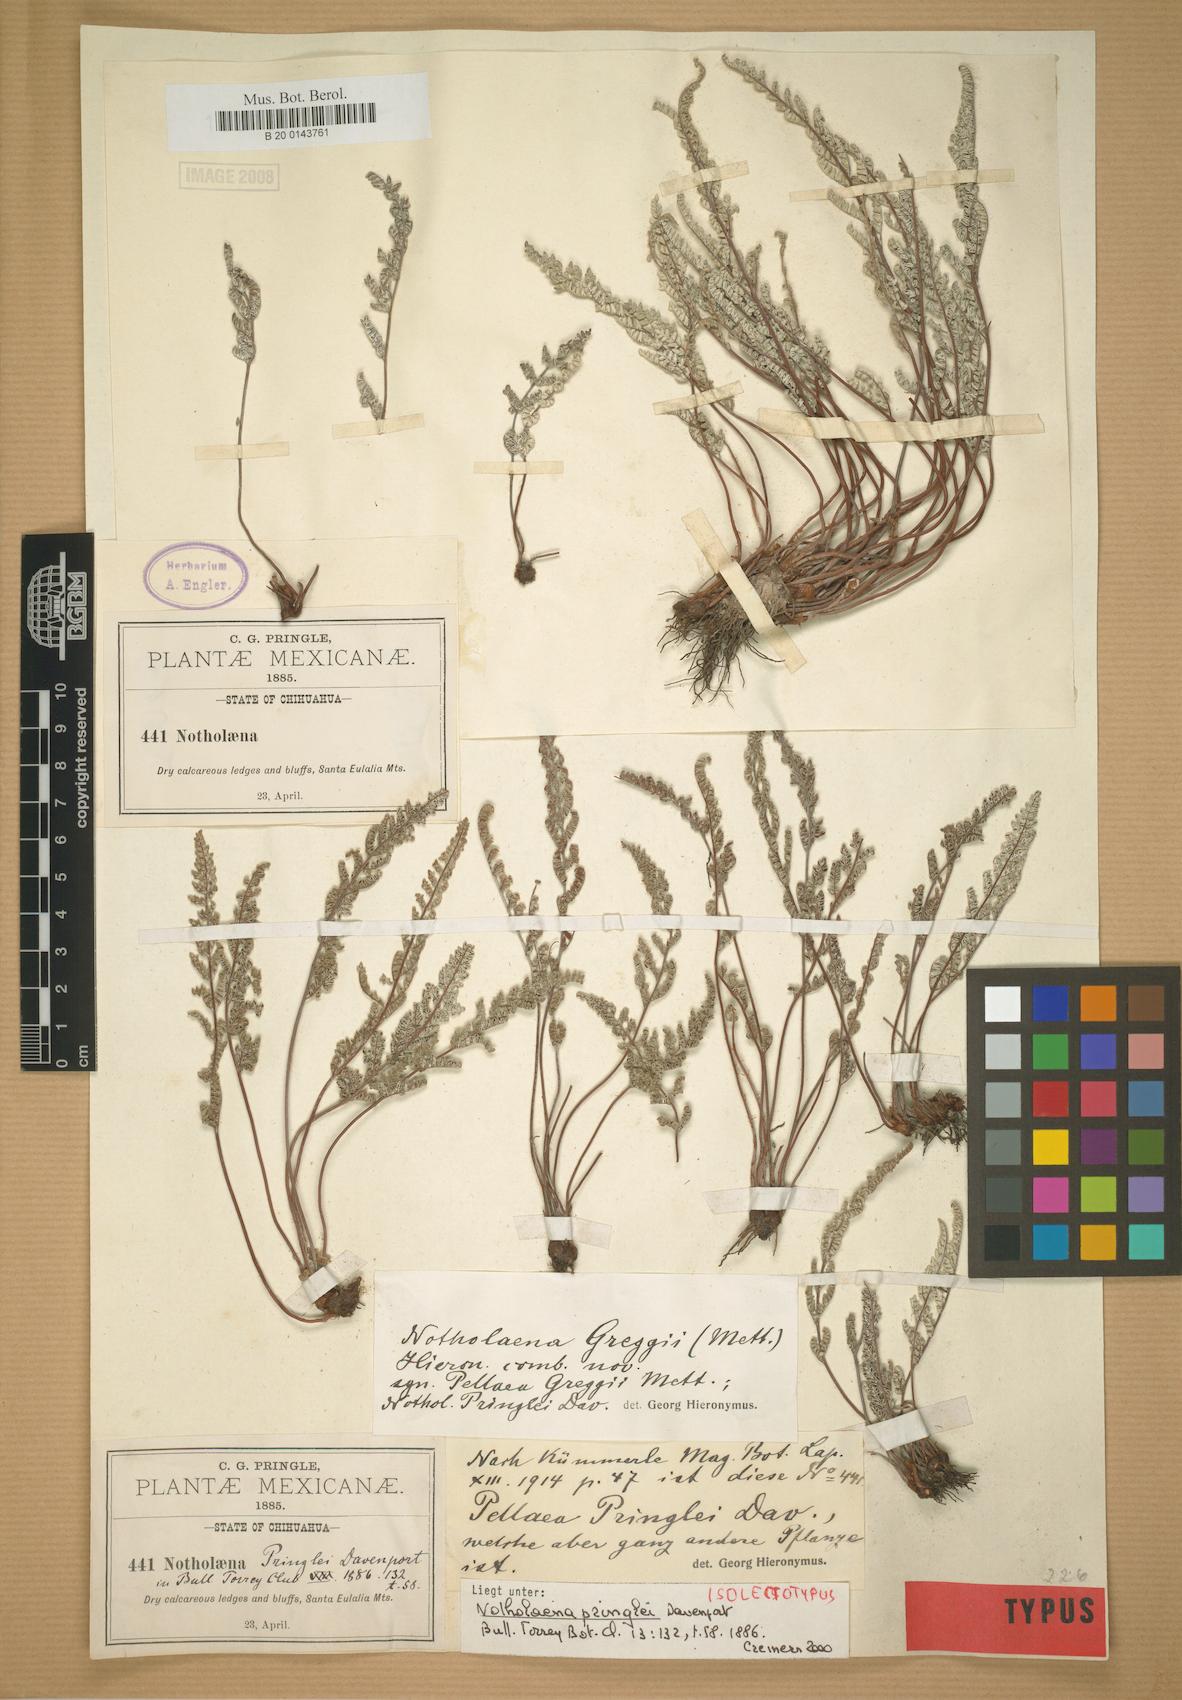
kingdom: Plantae
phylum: Tracheophyta
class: Polypodiopsida
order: Polypodiales
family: Pteridaceae
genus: Notholaena
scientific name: Notholaena greggii
